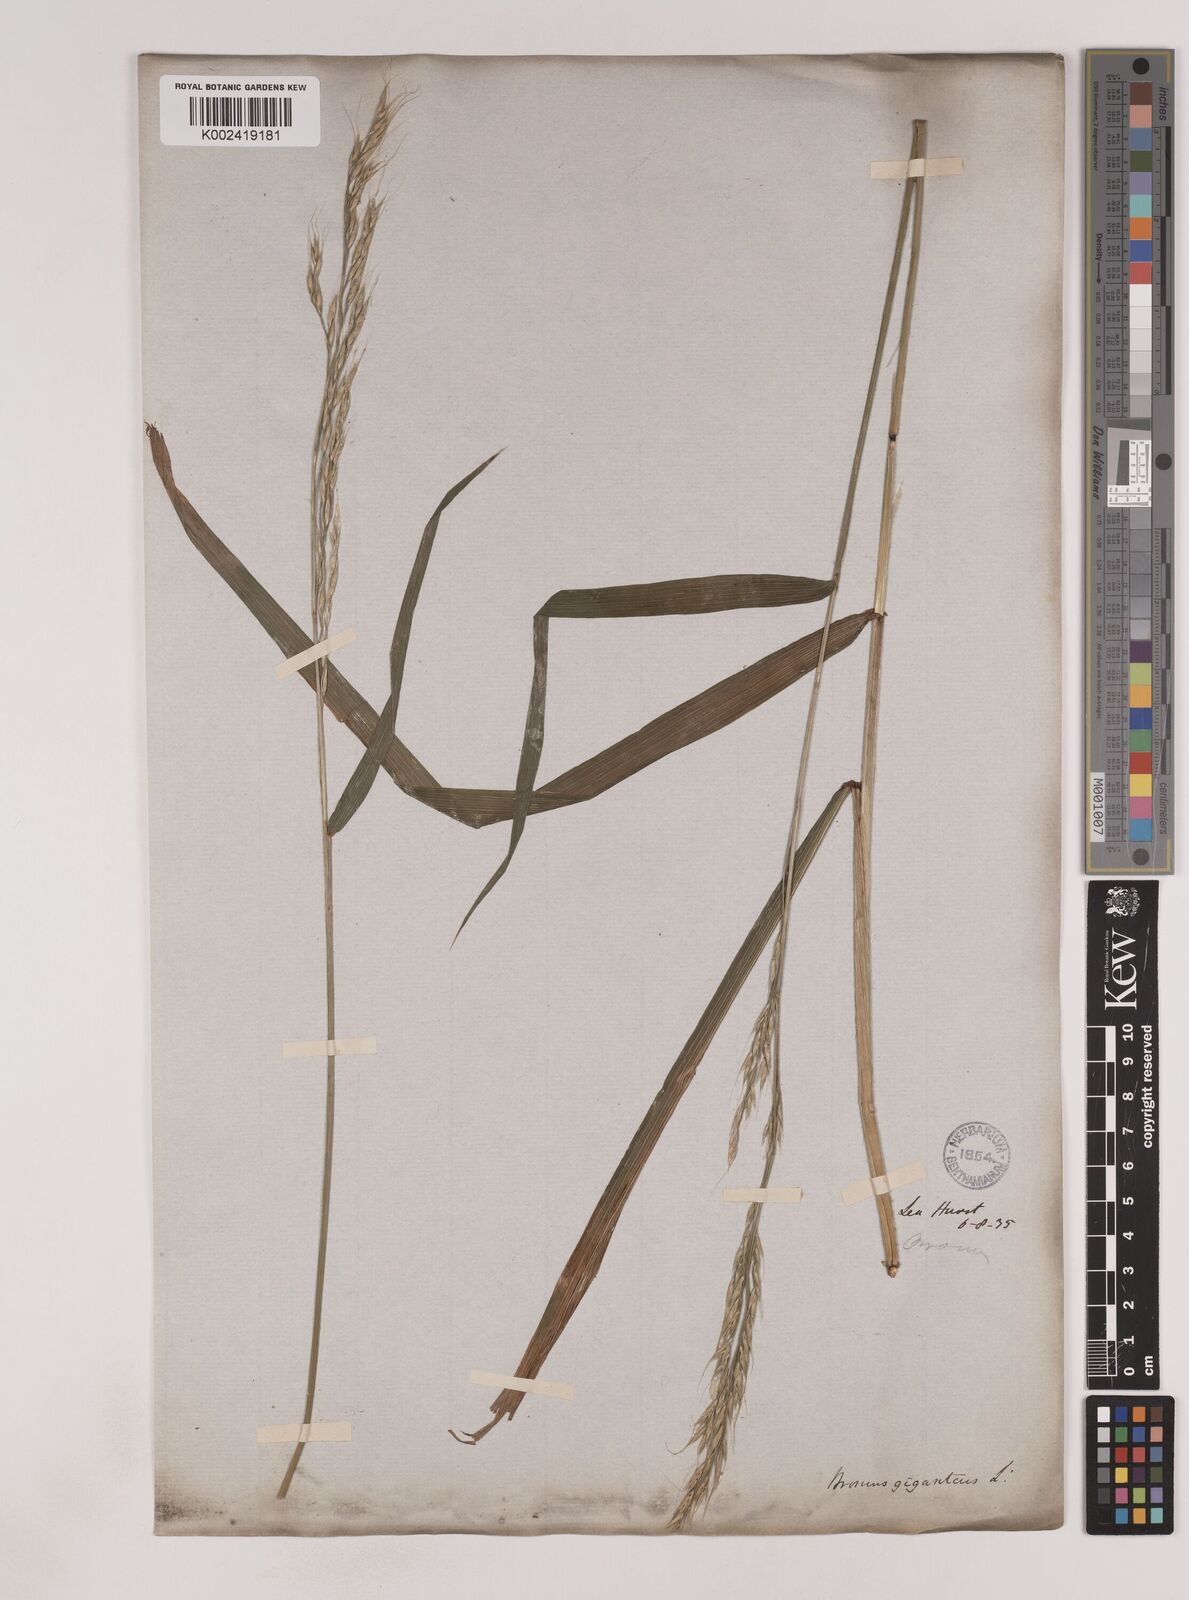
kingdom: Plantae
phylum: Tracheophyta
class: Liliopsida
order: Poales
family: Poaceae
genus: Lolium
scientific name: Lolium giganteum
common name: Giant fescue
